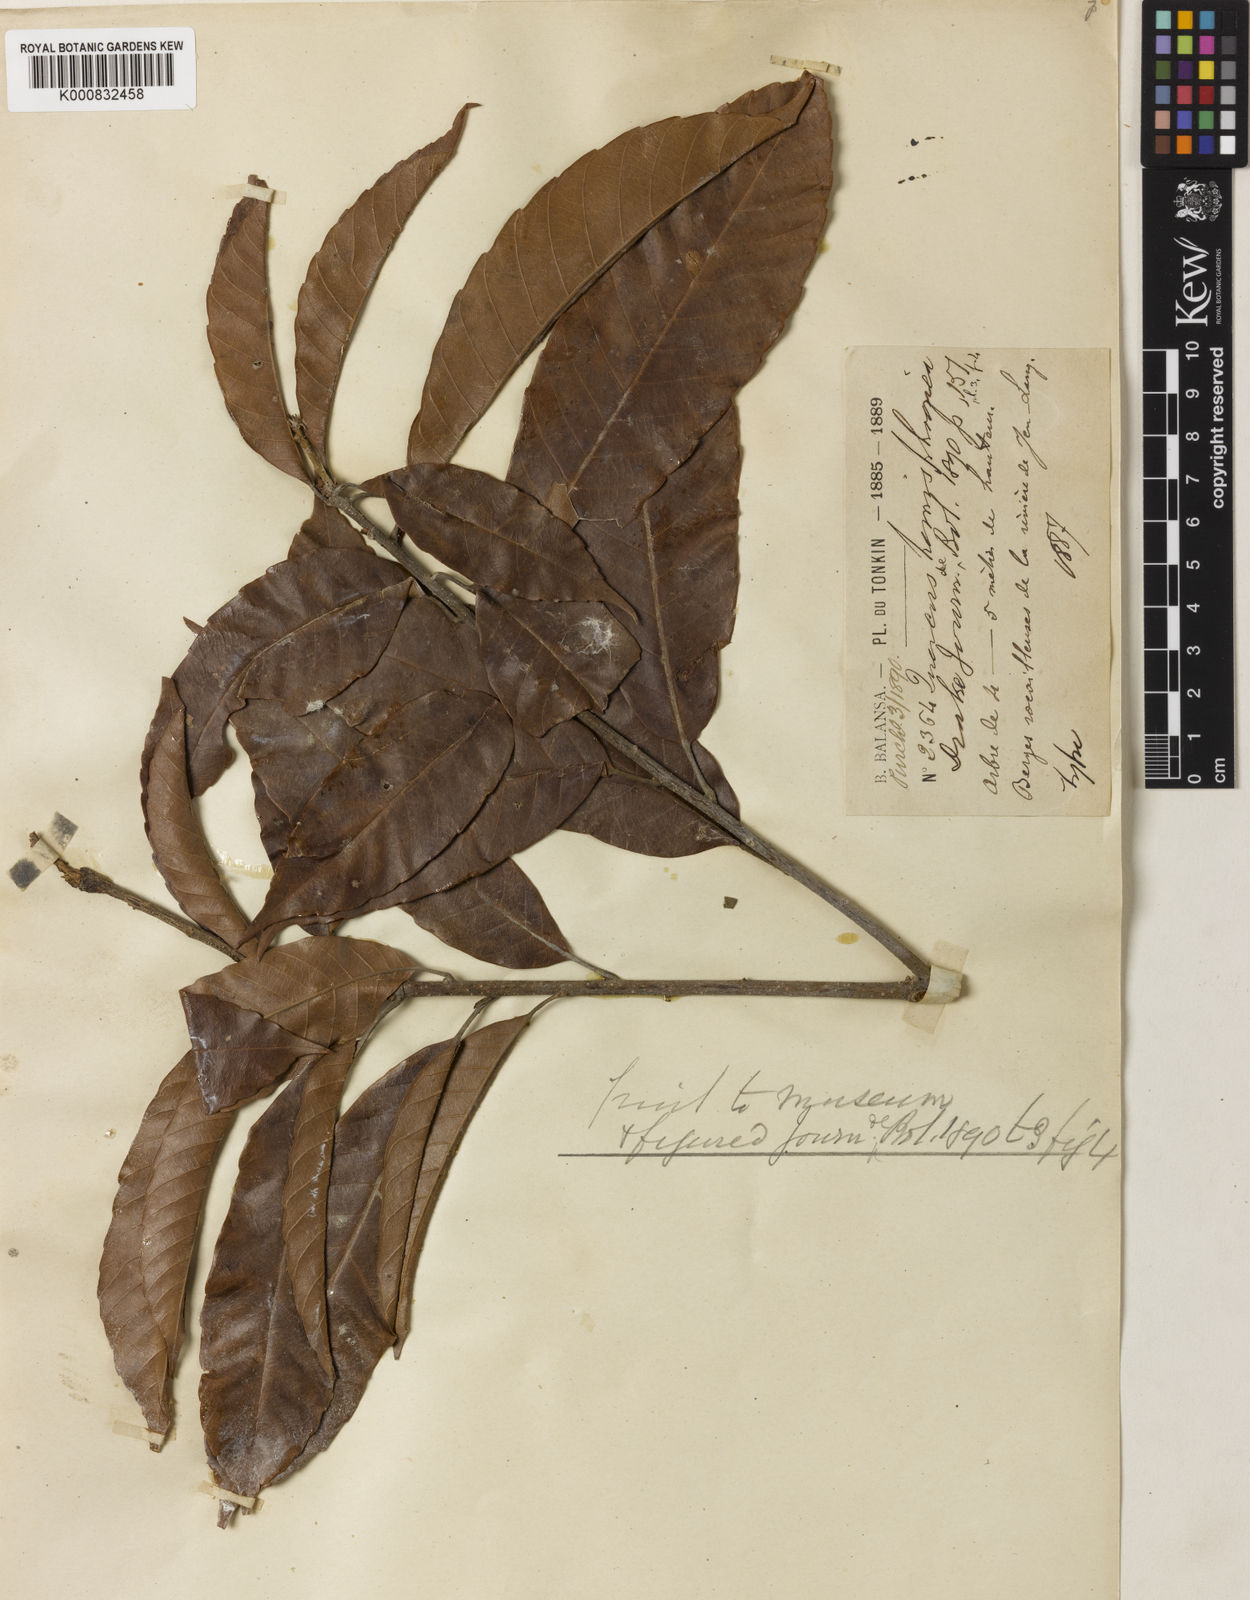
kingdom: Plantae
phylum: Tracheophyta
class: Magnoliopsida
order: Fagales
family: Fagaceae
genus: Lithocarpus
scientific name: Lithocarpus corneus
